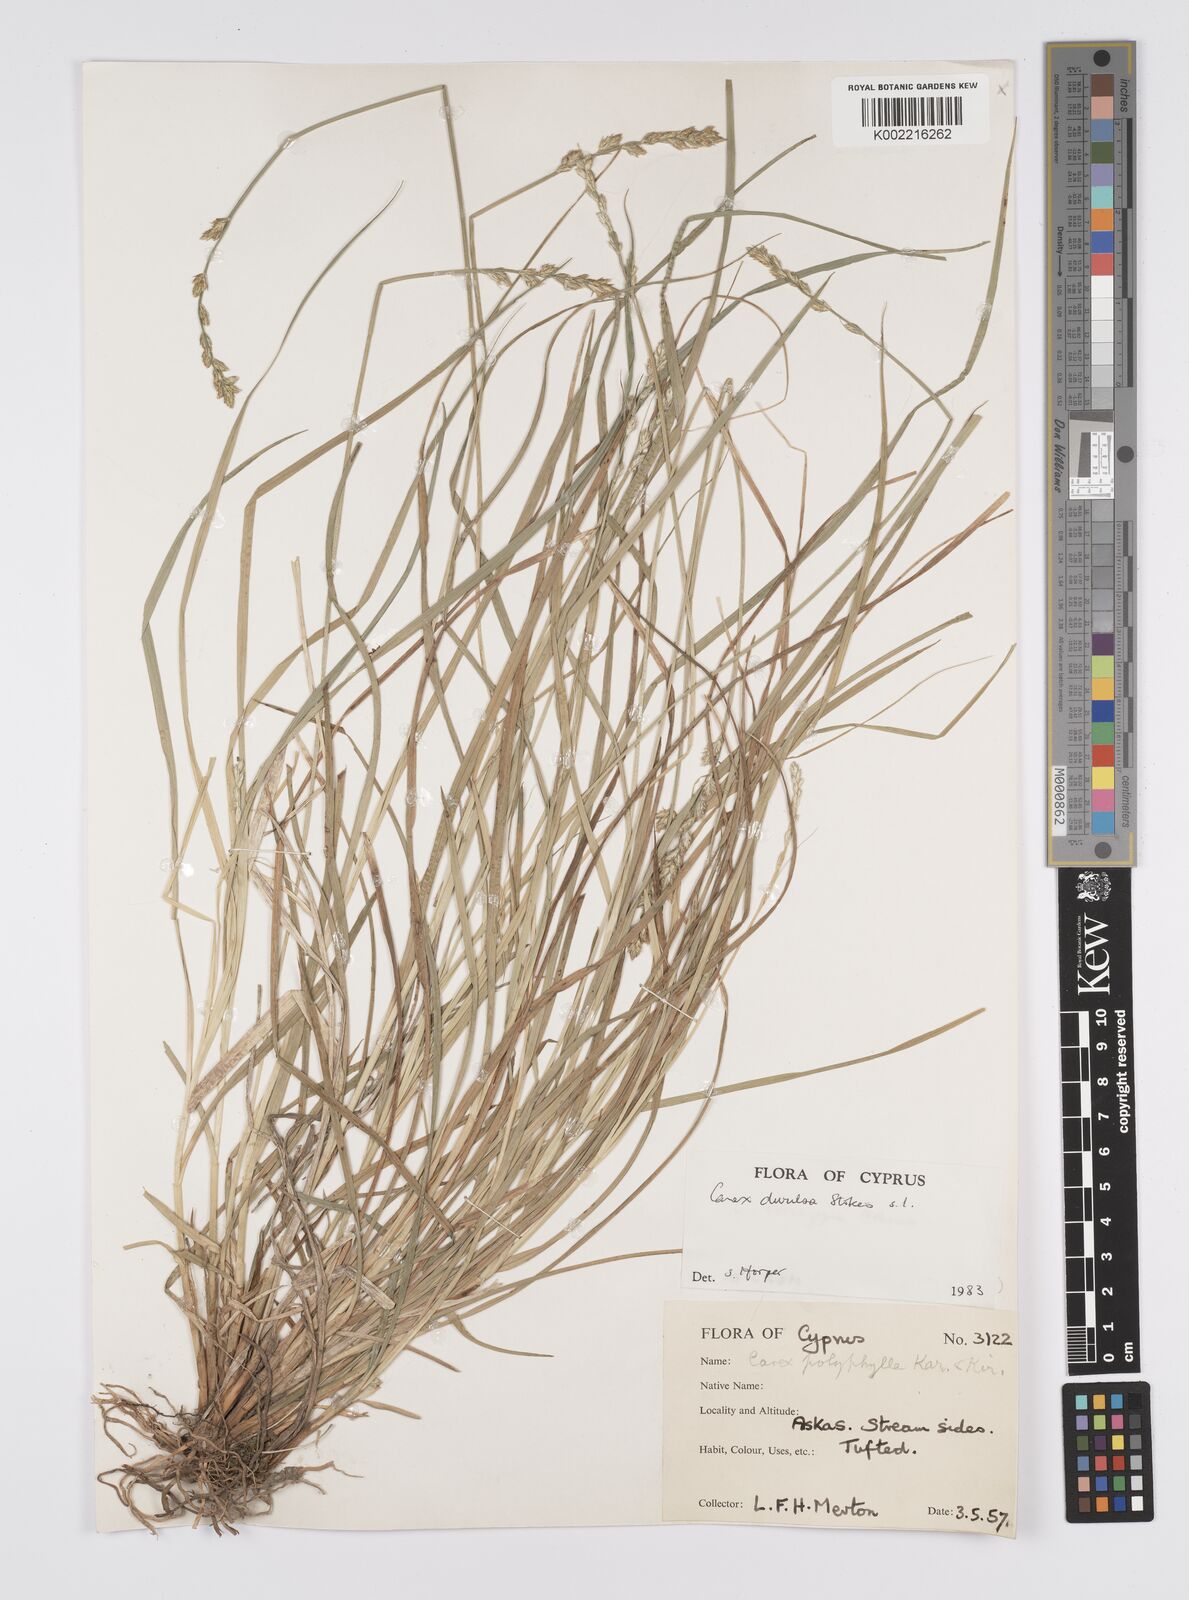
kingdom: Plantae
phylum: Tracheophyta
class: Liliopsida
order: Poales
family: Cyperaceae
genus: Carex
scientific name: Carex divulsa
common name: Grassland sedge
